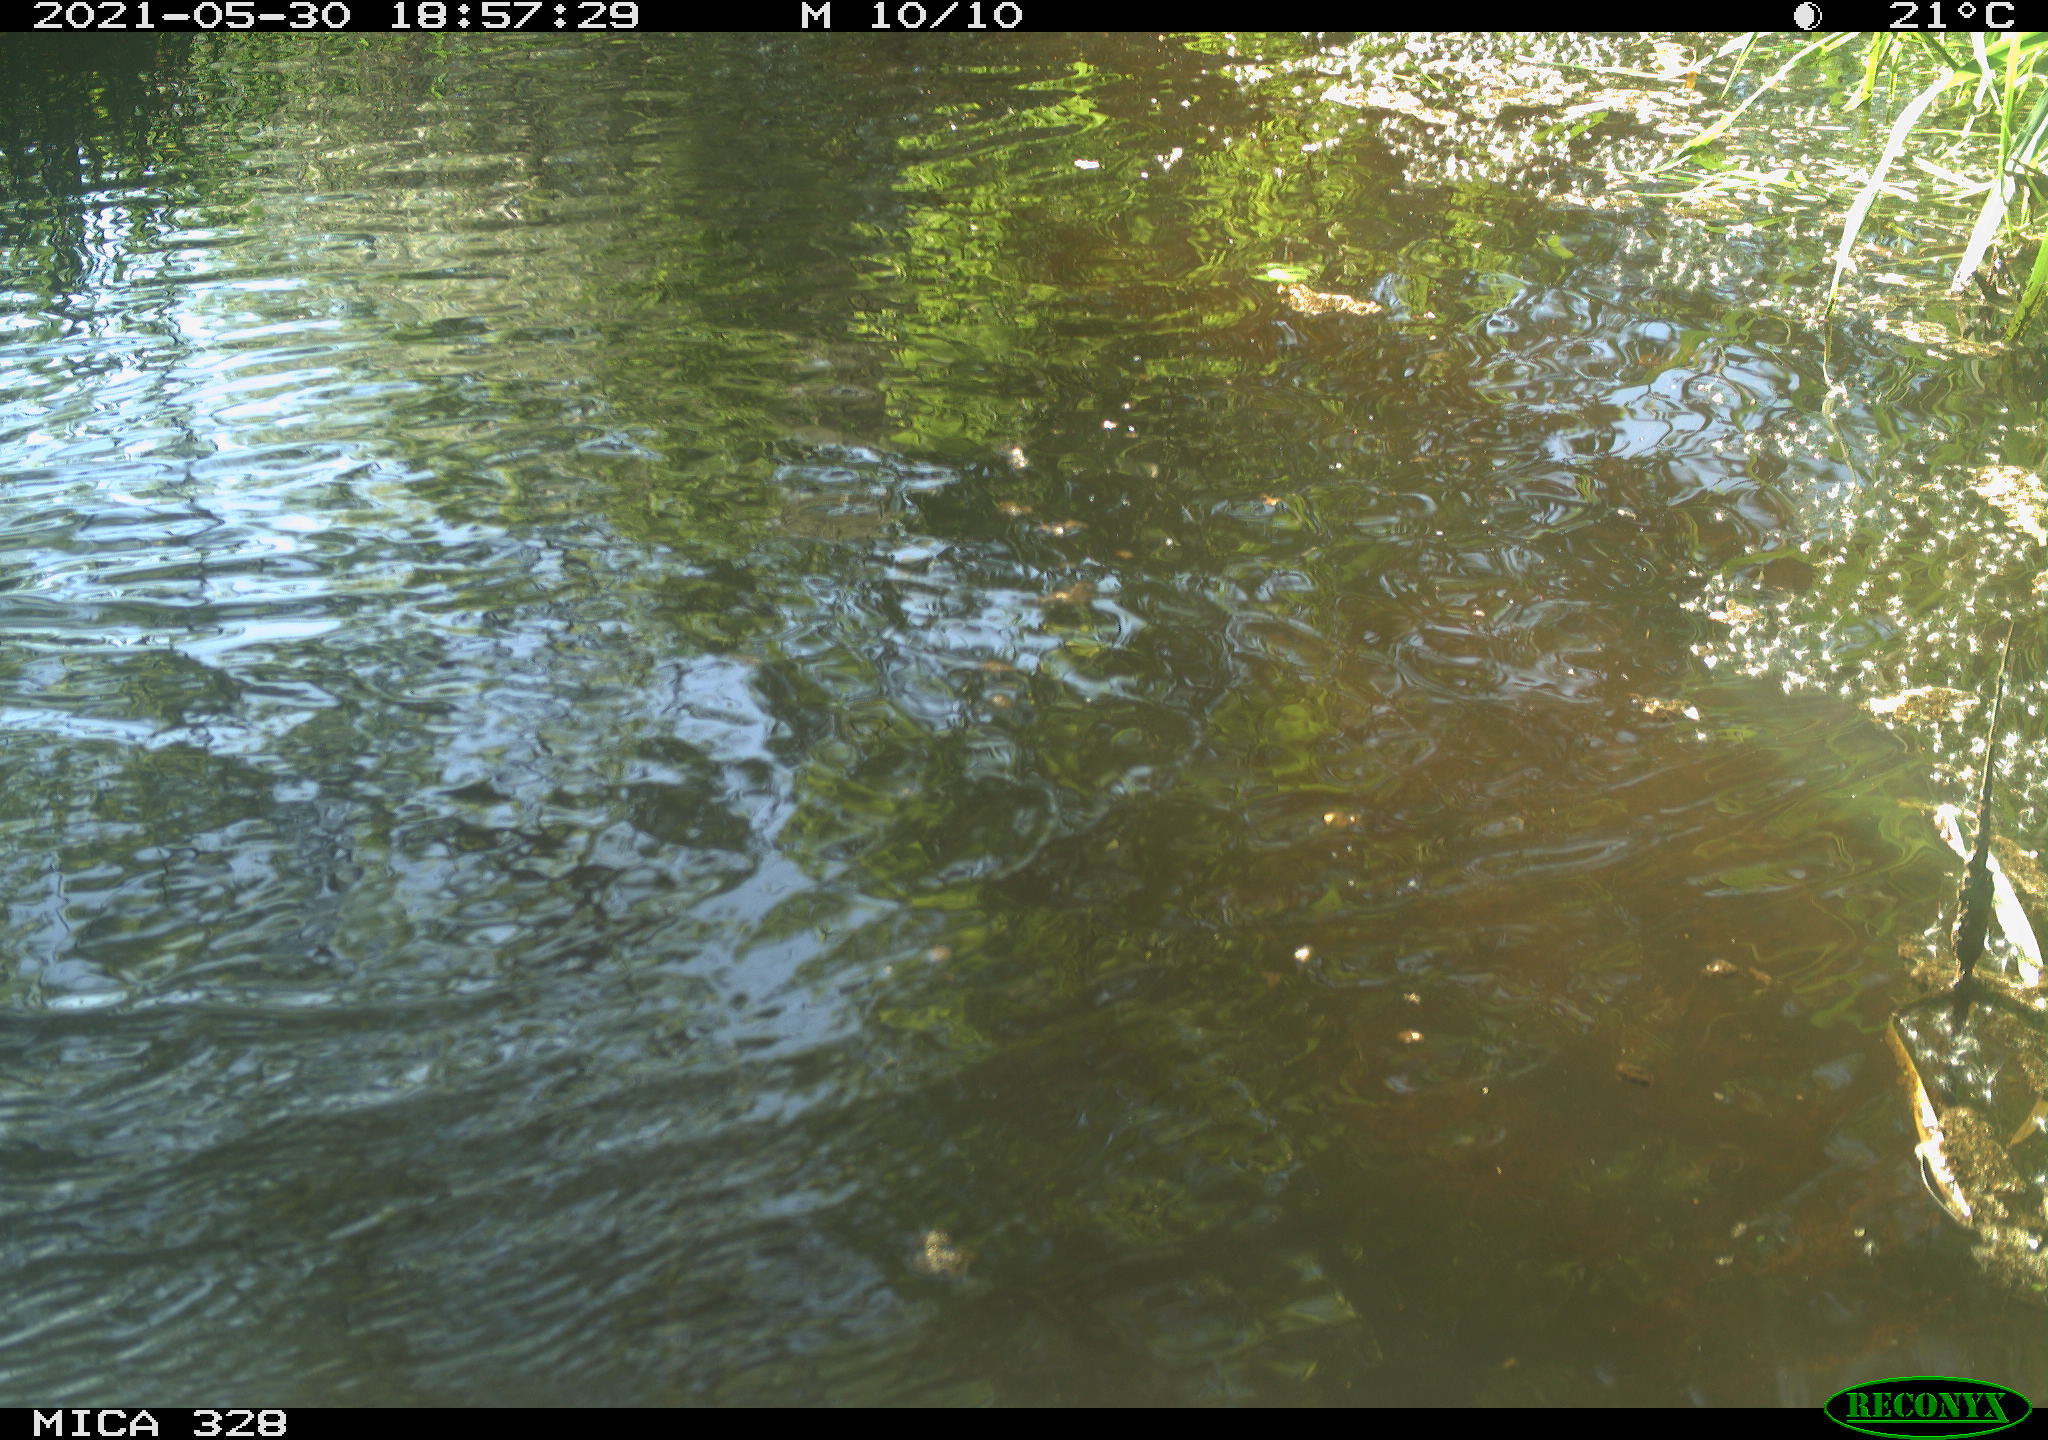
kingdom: Animalia
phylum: Chordata
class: Aves
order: Anseriformes
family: Anatidae
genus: Aix
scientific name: Aix galericulata
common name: Mandarin duck
